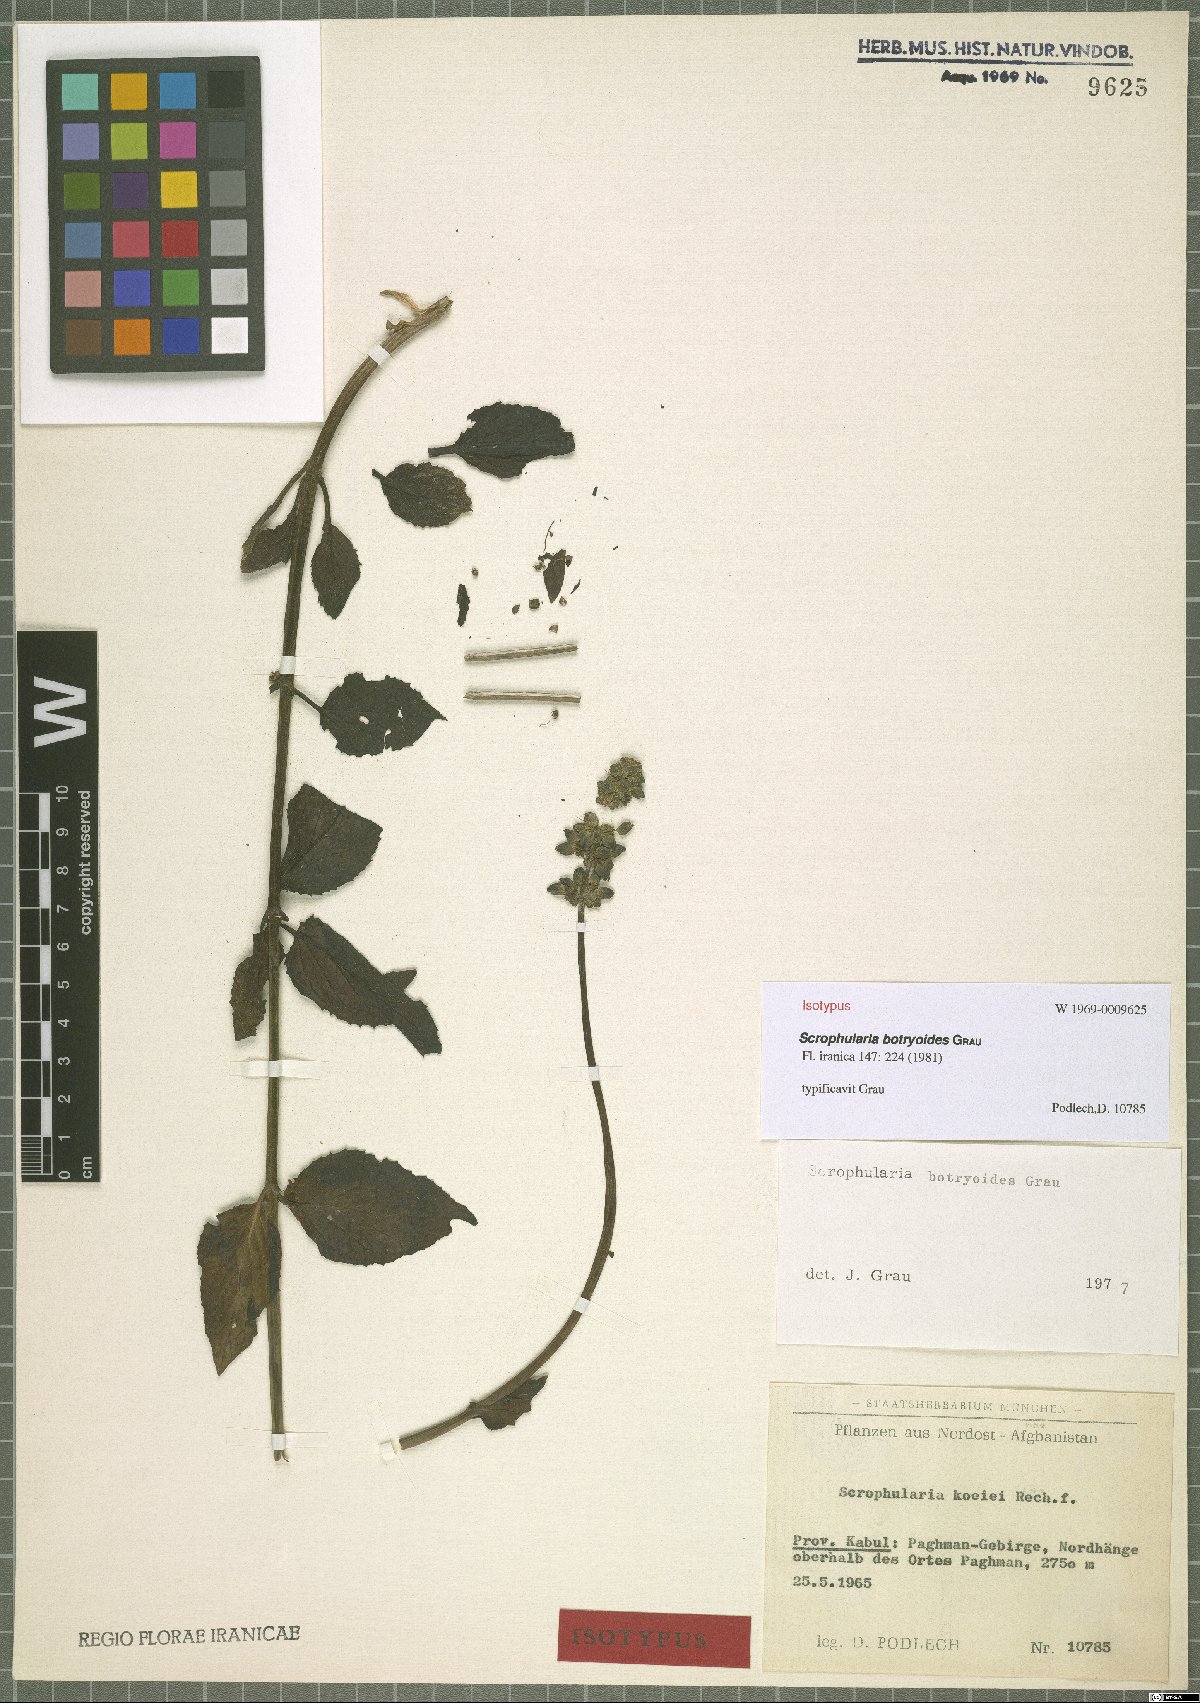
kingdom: Plantae
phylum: Tracheophyta
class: Magnoliopsida
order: Lamiales
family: Scrophulariaceae
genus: Scrophularia
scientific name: Scrophularia botryoides
